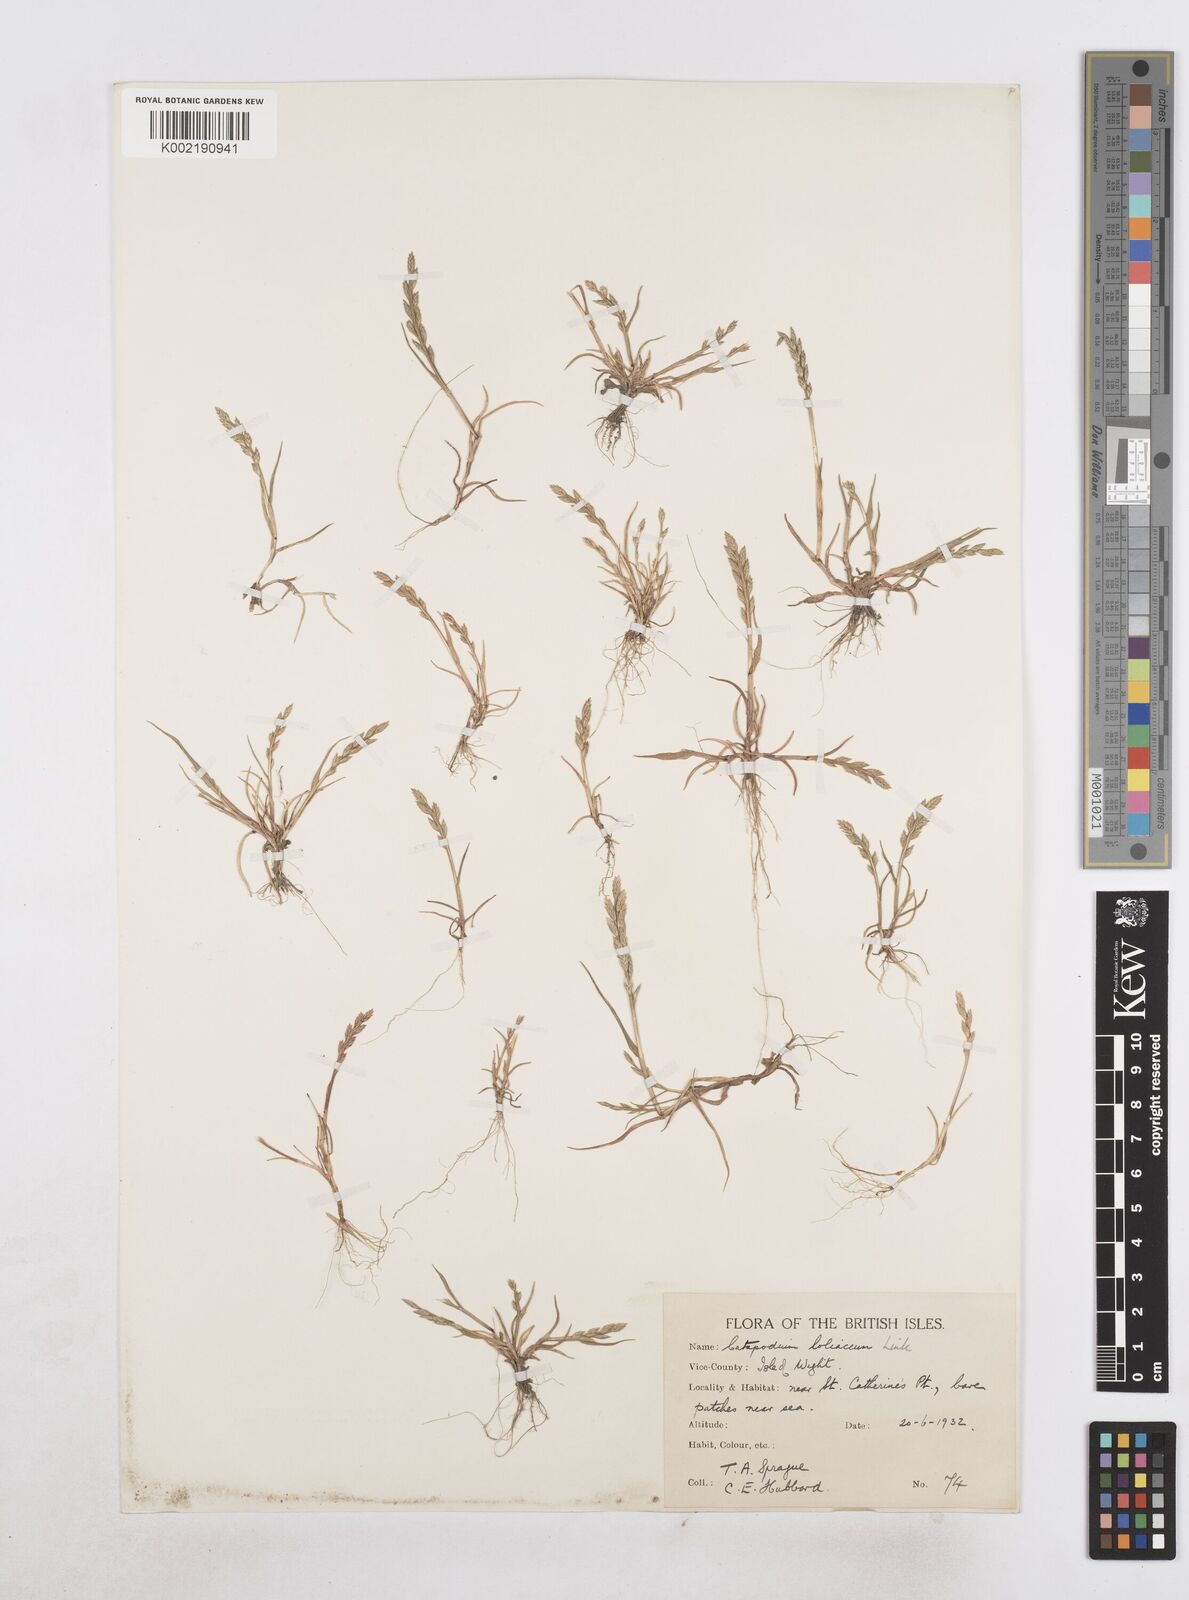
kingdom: Plantae
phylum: Tracheophyta
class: Liliopsida
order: Poales
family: Poaceae
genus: Catapodium
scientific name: Catapodium marinum
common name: Sea fern-grass
